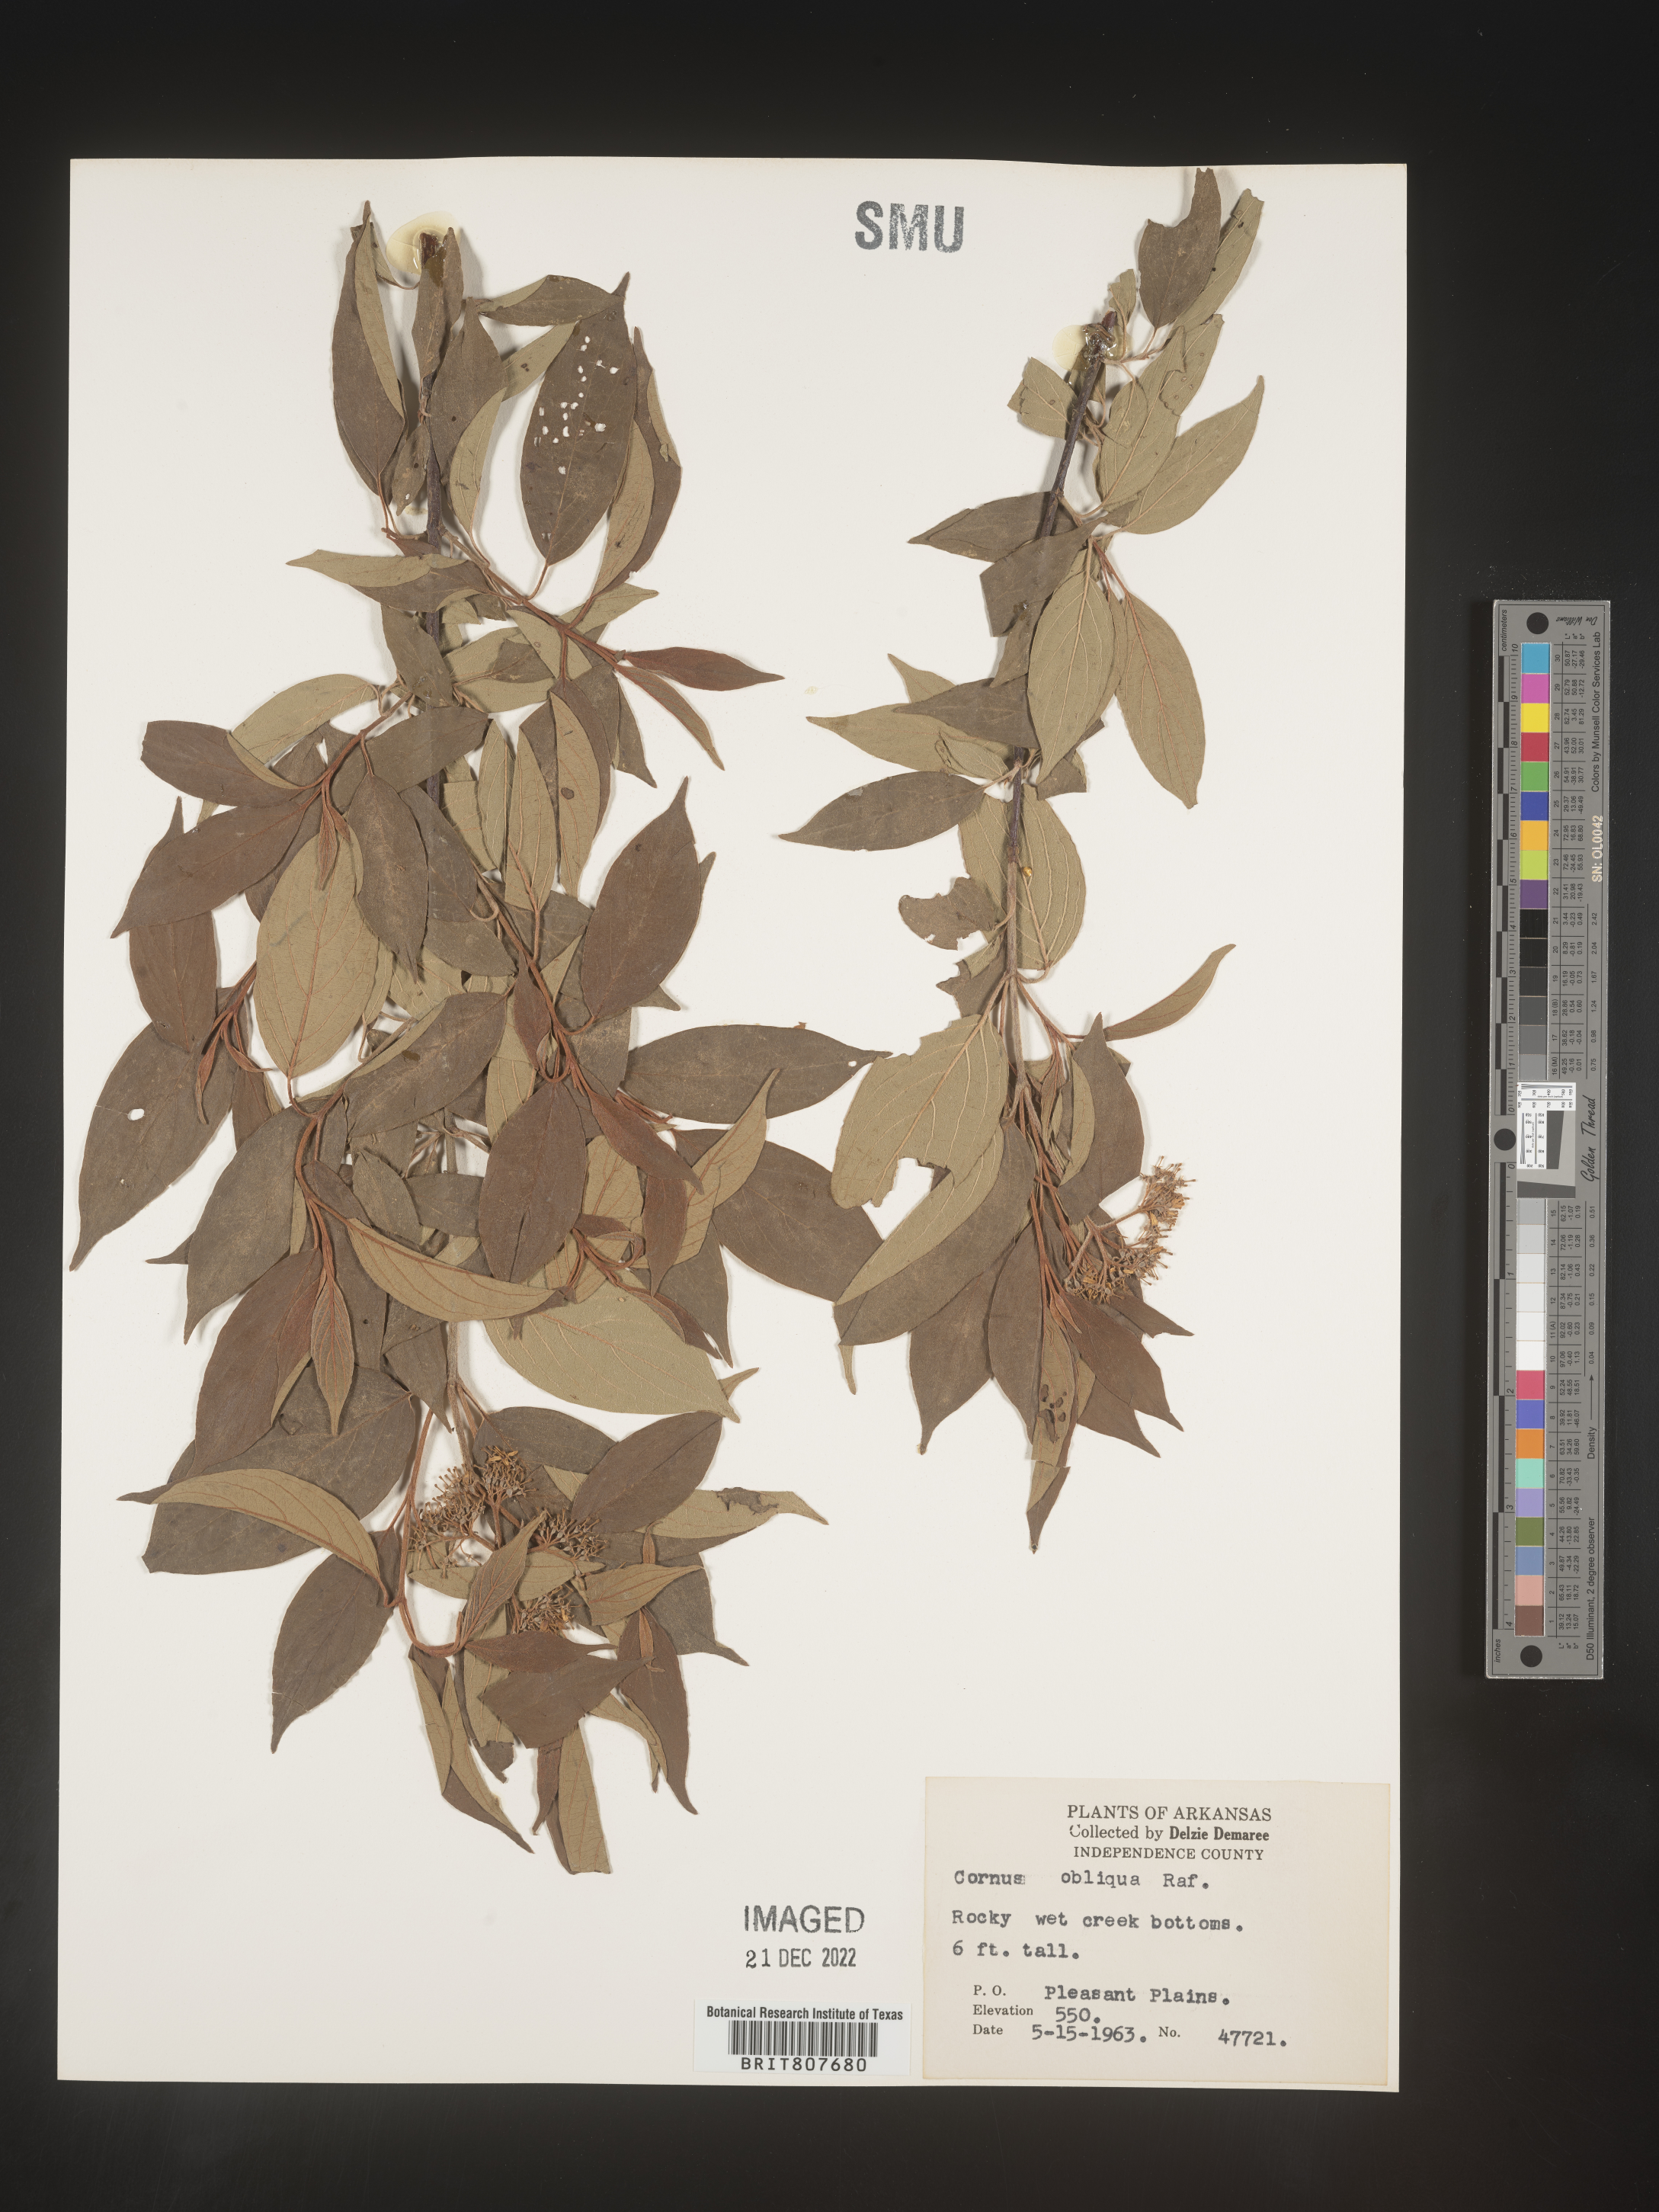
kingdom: Plantae
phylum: Tracheophyta
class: Magnoliopsida
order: Cornales
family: Cornaceae
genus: Cornus
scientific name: Cornus obliqua
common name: Pale dogwood
